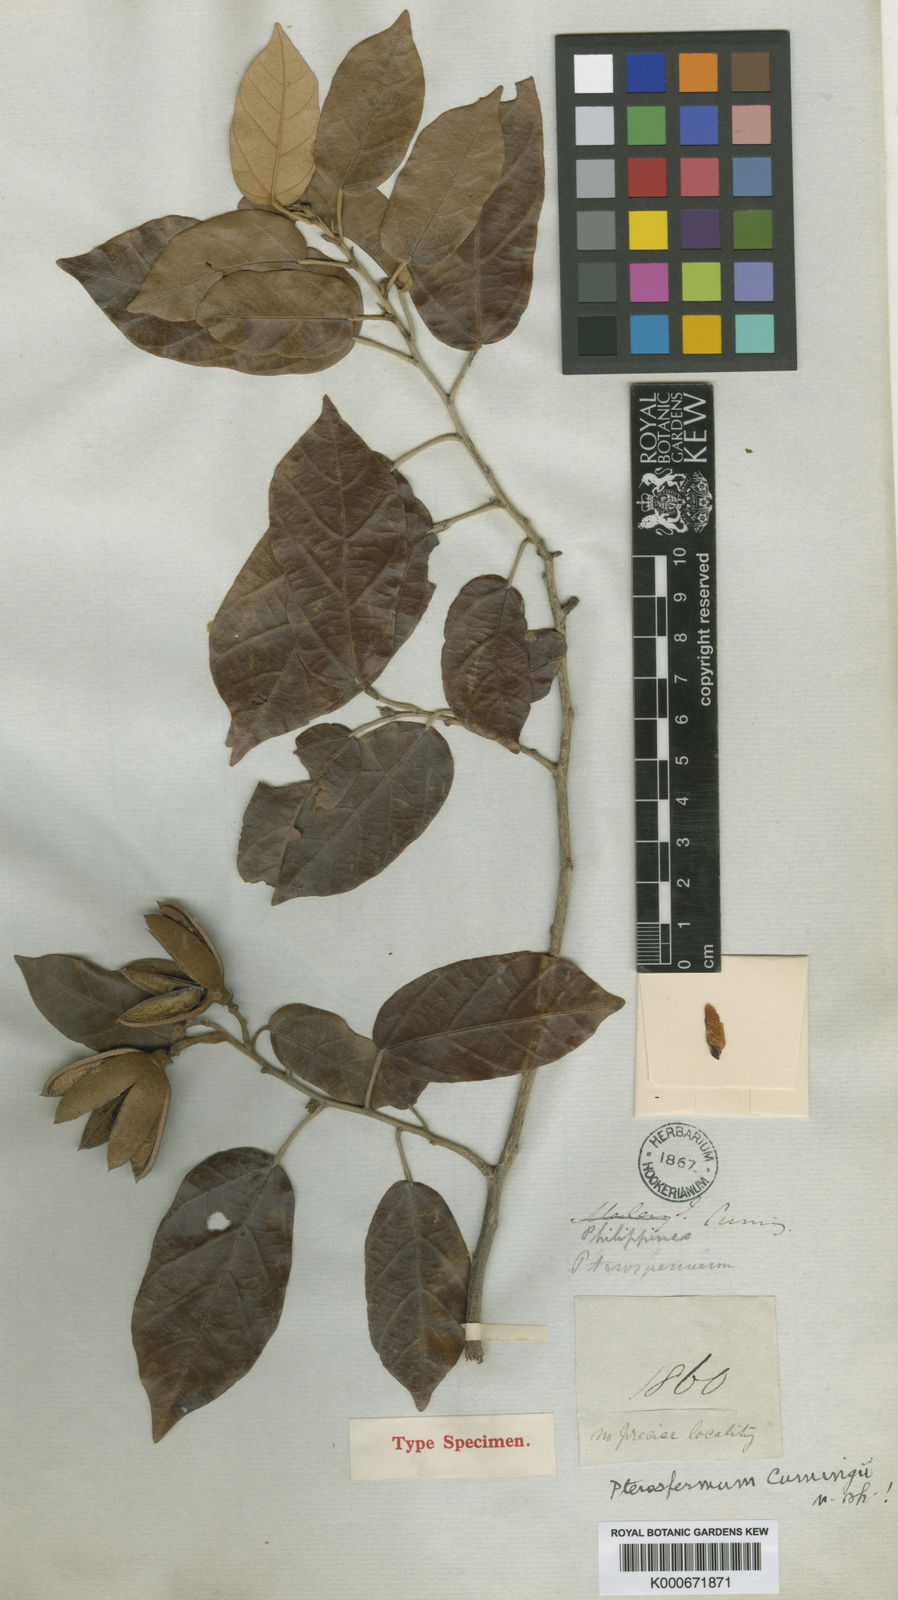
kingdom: Plantae
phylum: Tracheophyta
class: Magnoliopsida
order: Malvales
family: Malvaceae
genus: Pterospermum
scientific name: Pterospermum cumingii
